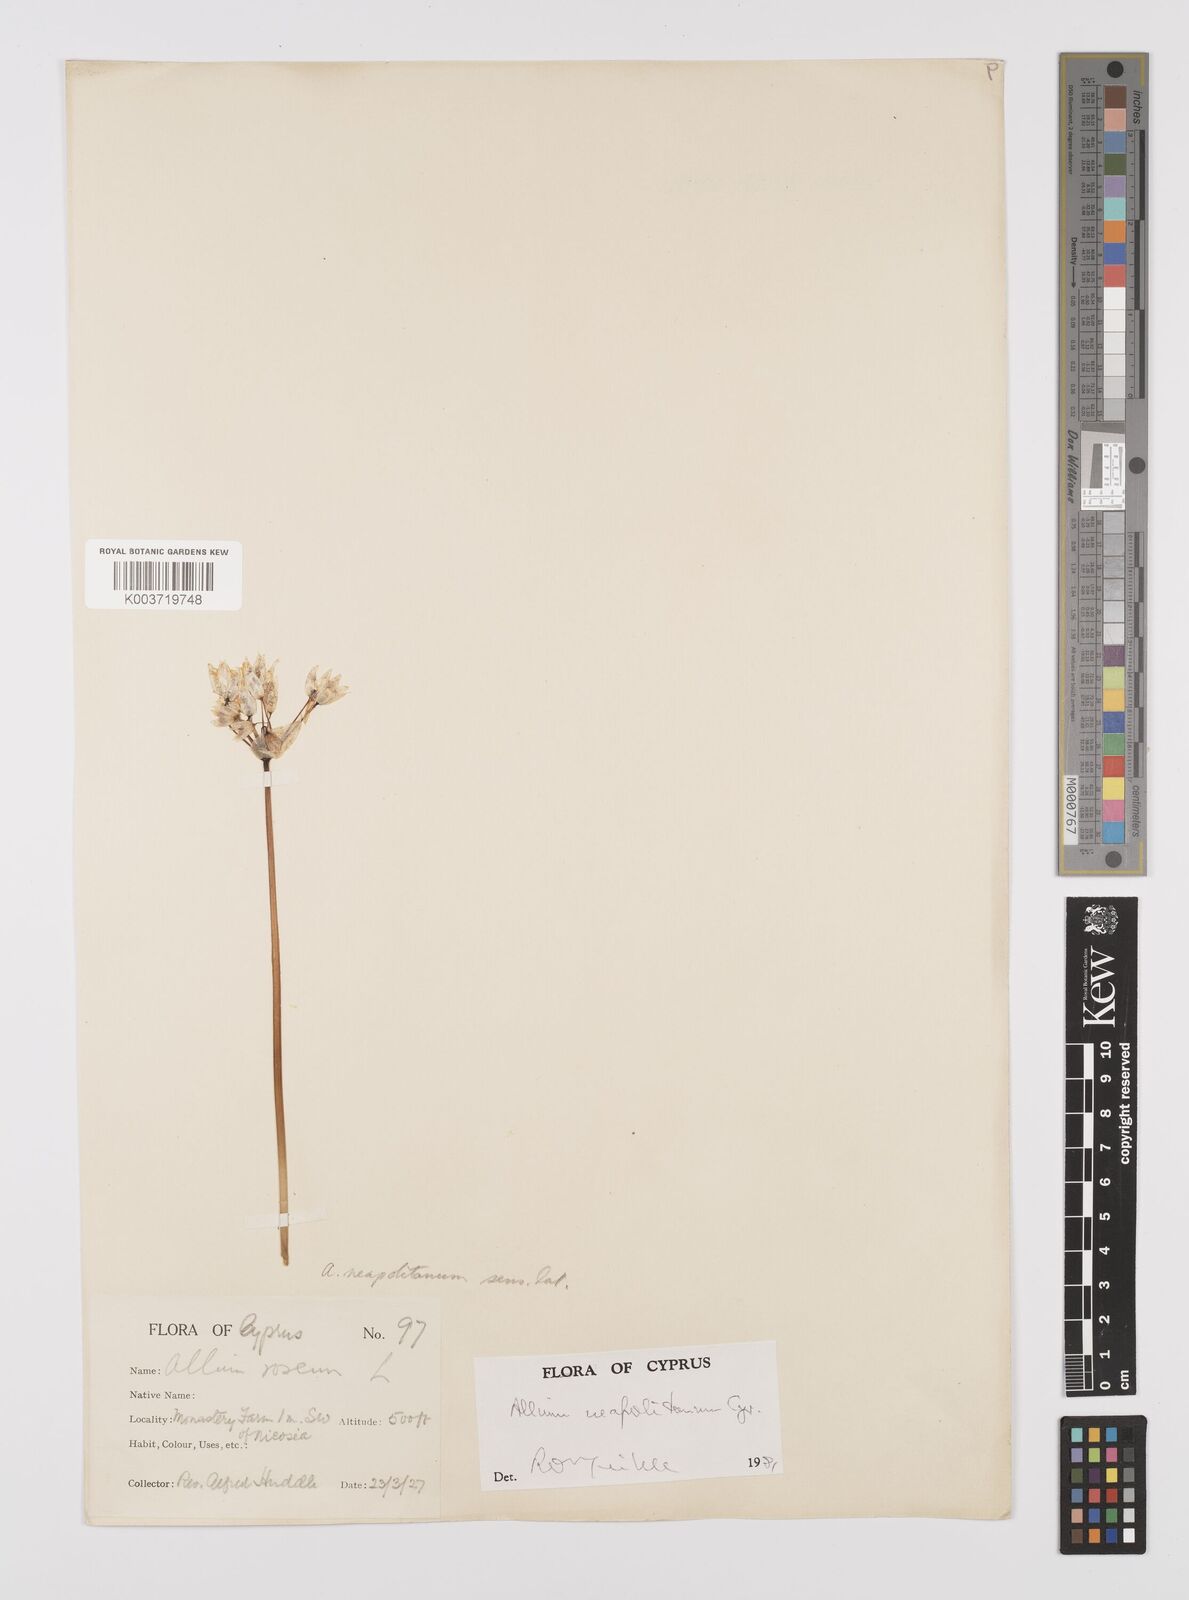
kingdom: Plantae
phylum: Tracheophyta
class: Liliopsida
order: Asparagales
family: Amaryllidaceae
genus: Allium
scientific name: Allium neapolitanum
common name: Neapolitan garlic
